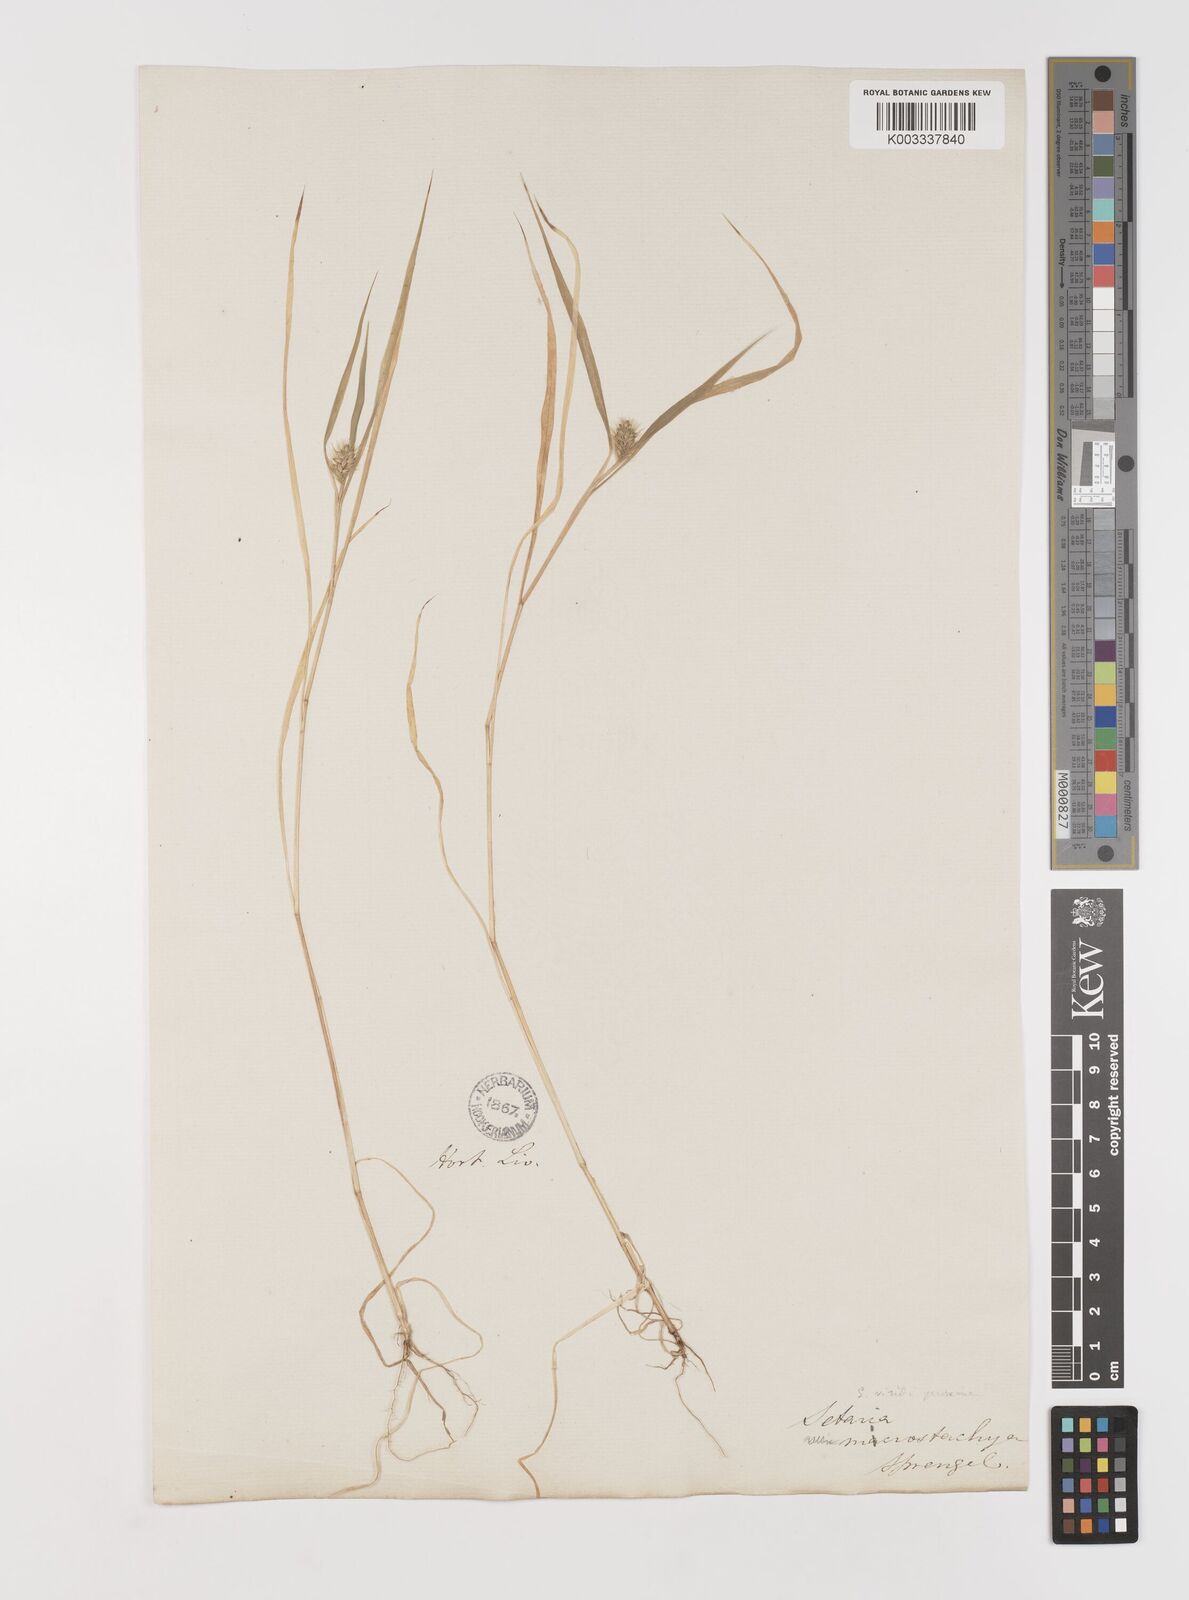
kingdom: Plantae
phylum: Tracheophyta
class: Liliopsida
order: Poales
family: Poaceae
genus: Setaria
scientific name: Setaria viridis
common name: Green bristlegrass
